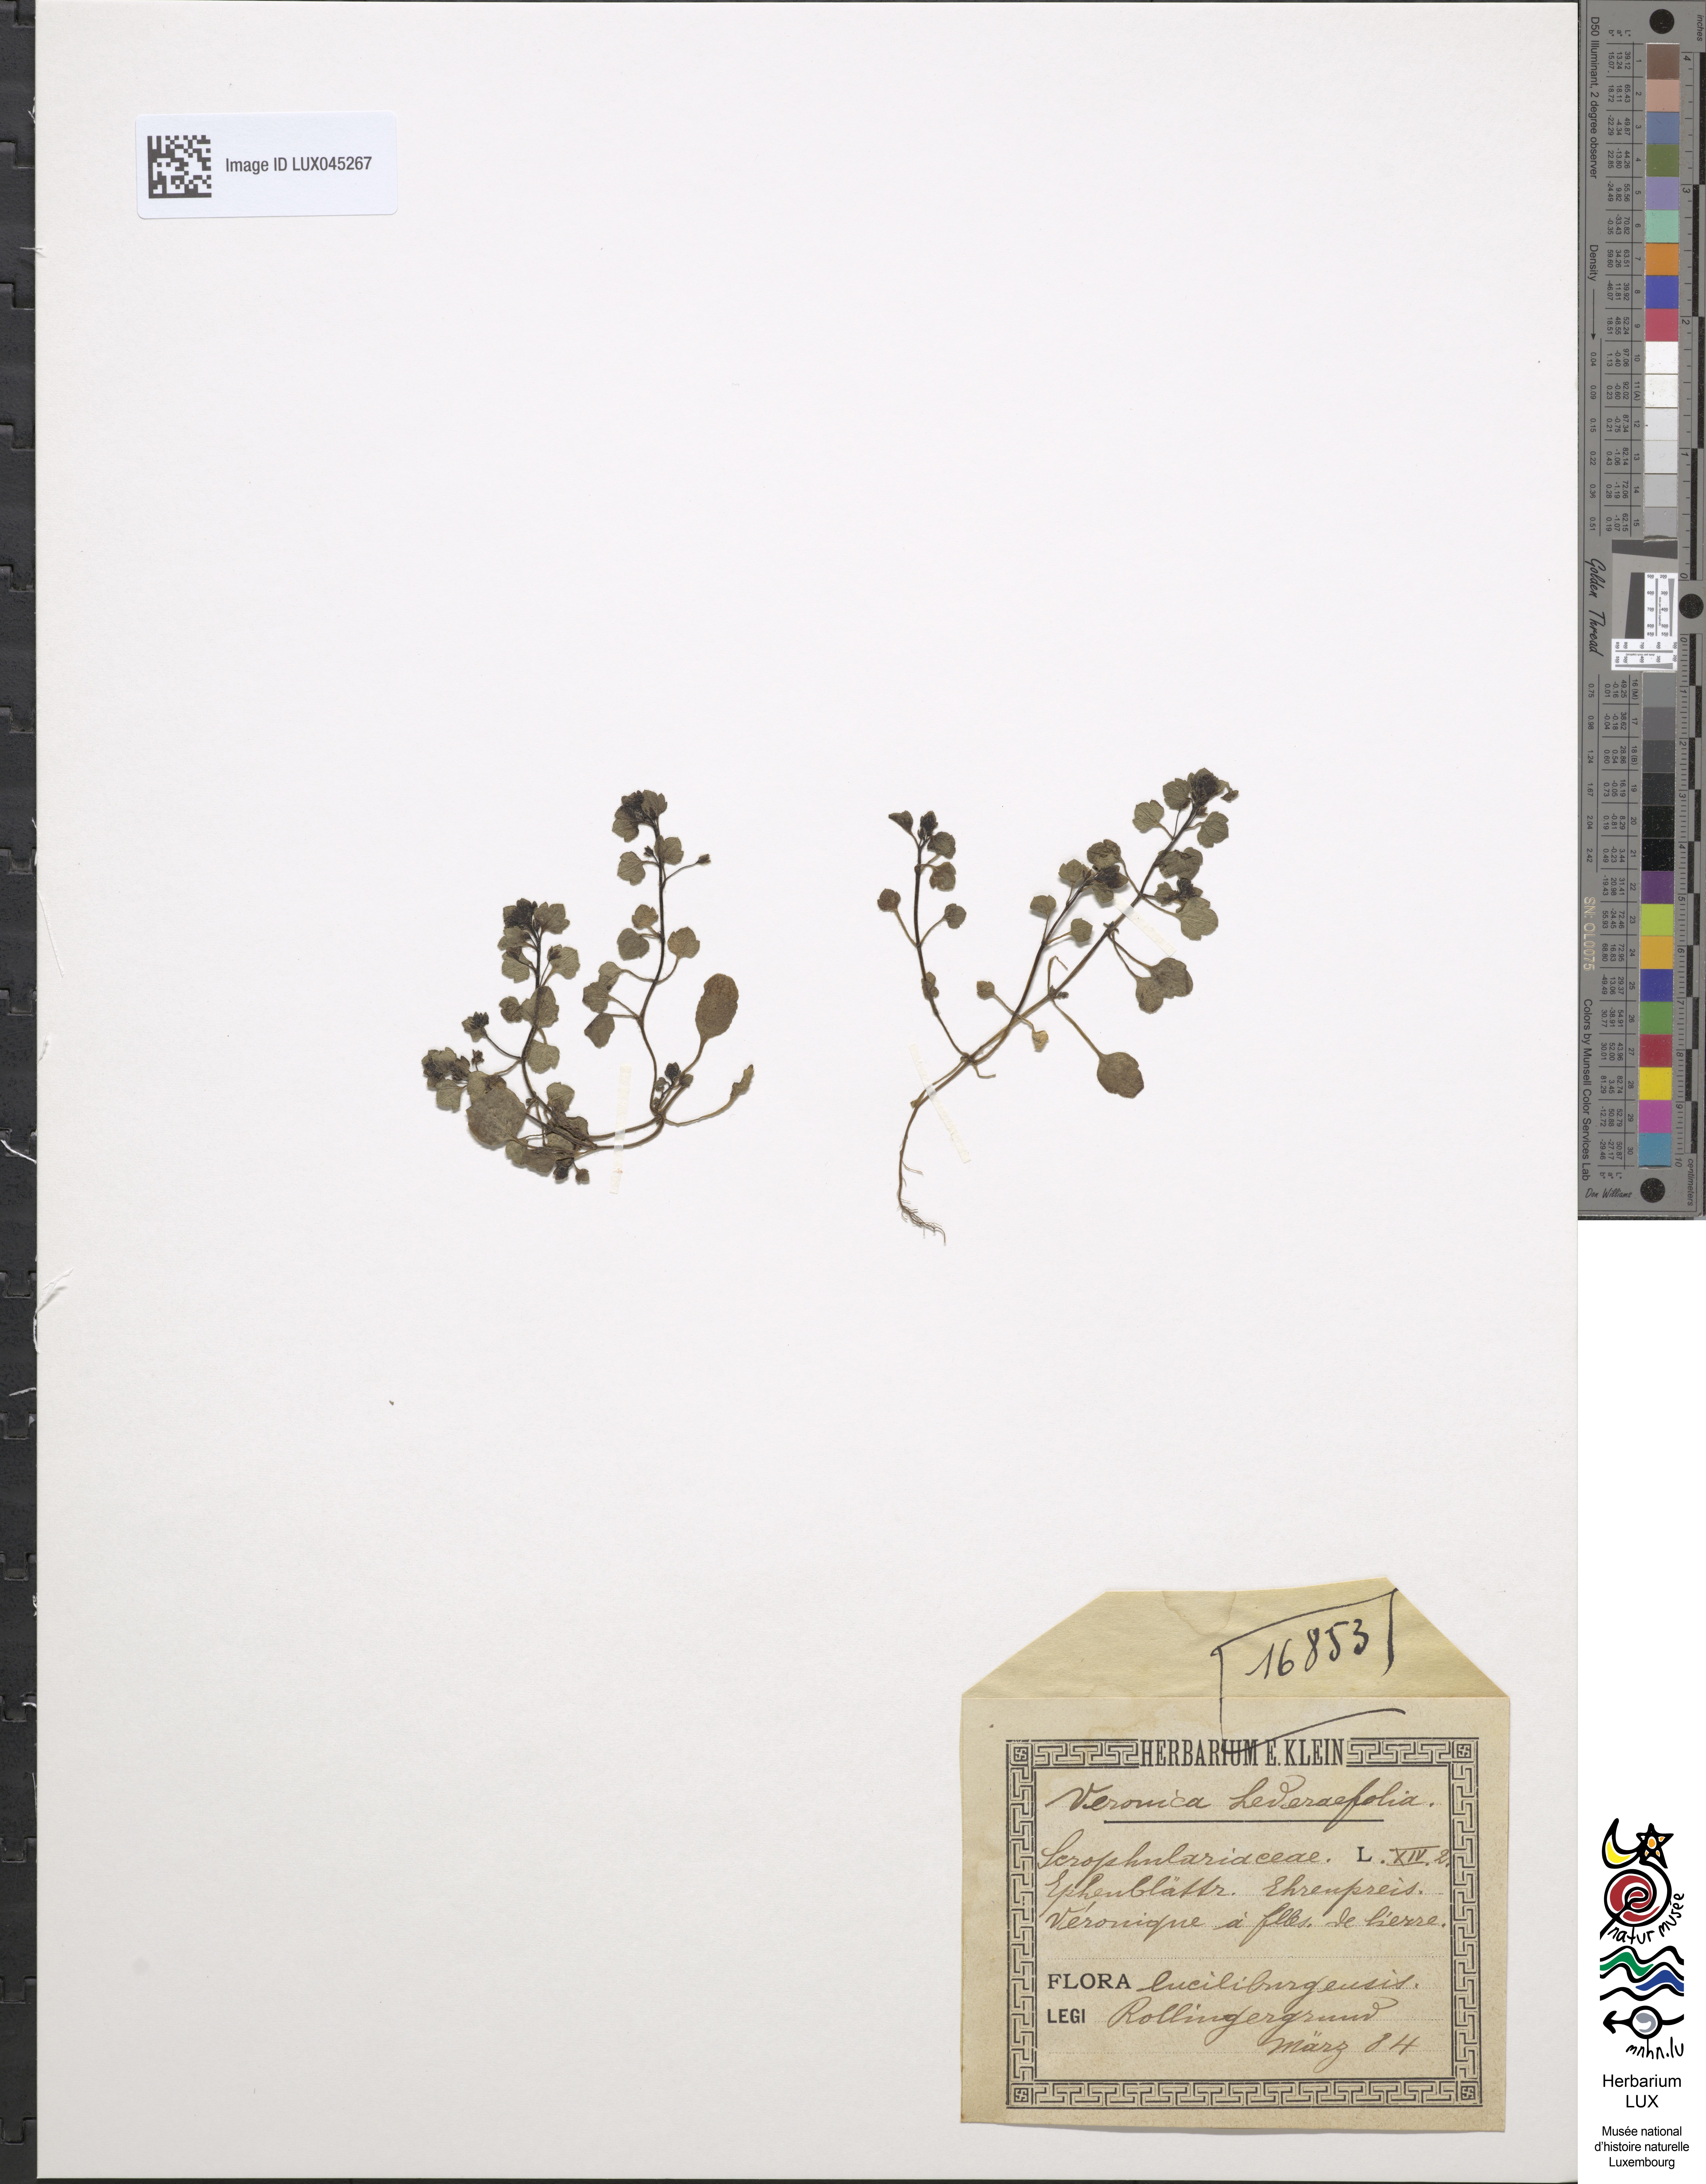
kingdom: Plantae
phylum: Tracheophyta
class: Magnoliopsida
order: Lamiales
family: Plantaginaceae
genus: Veronica
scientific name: Veronica hederifolia
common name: Ivy-leaved speedwell
